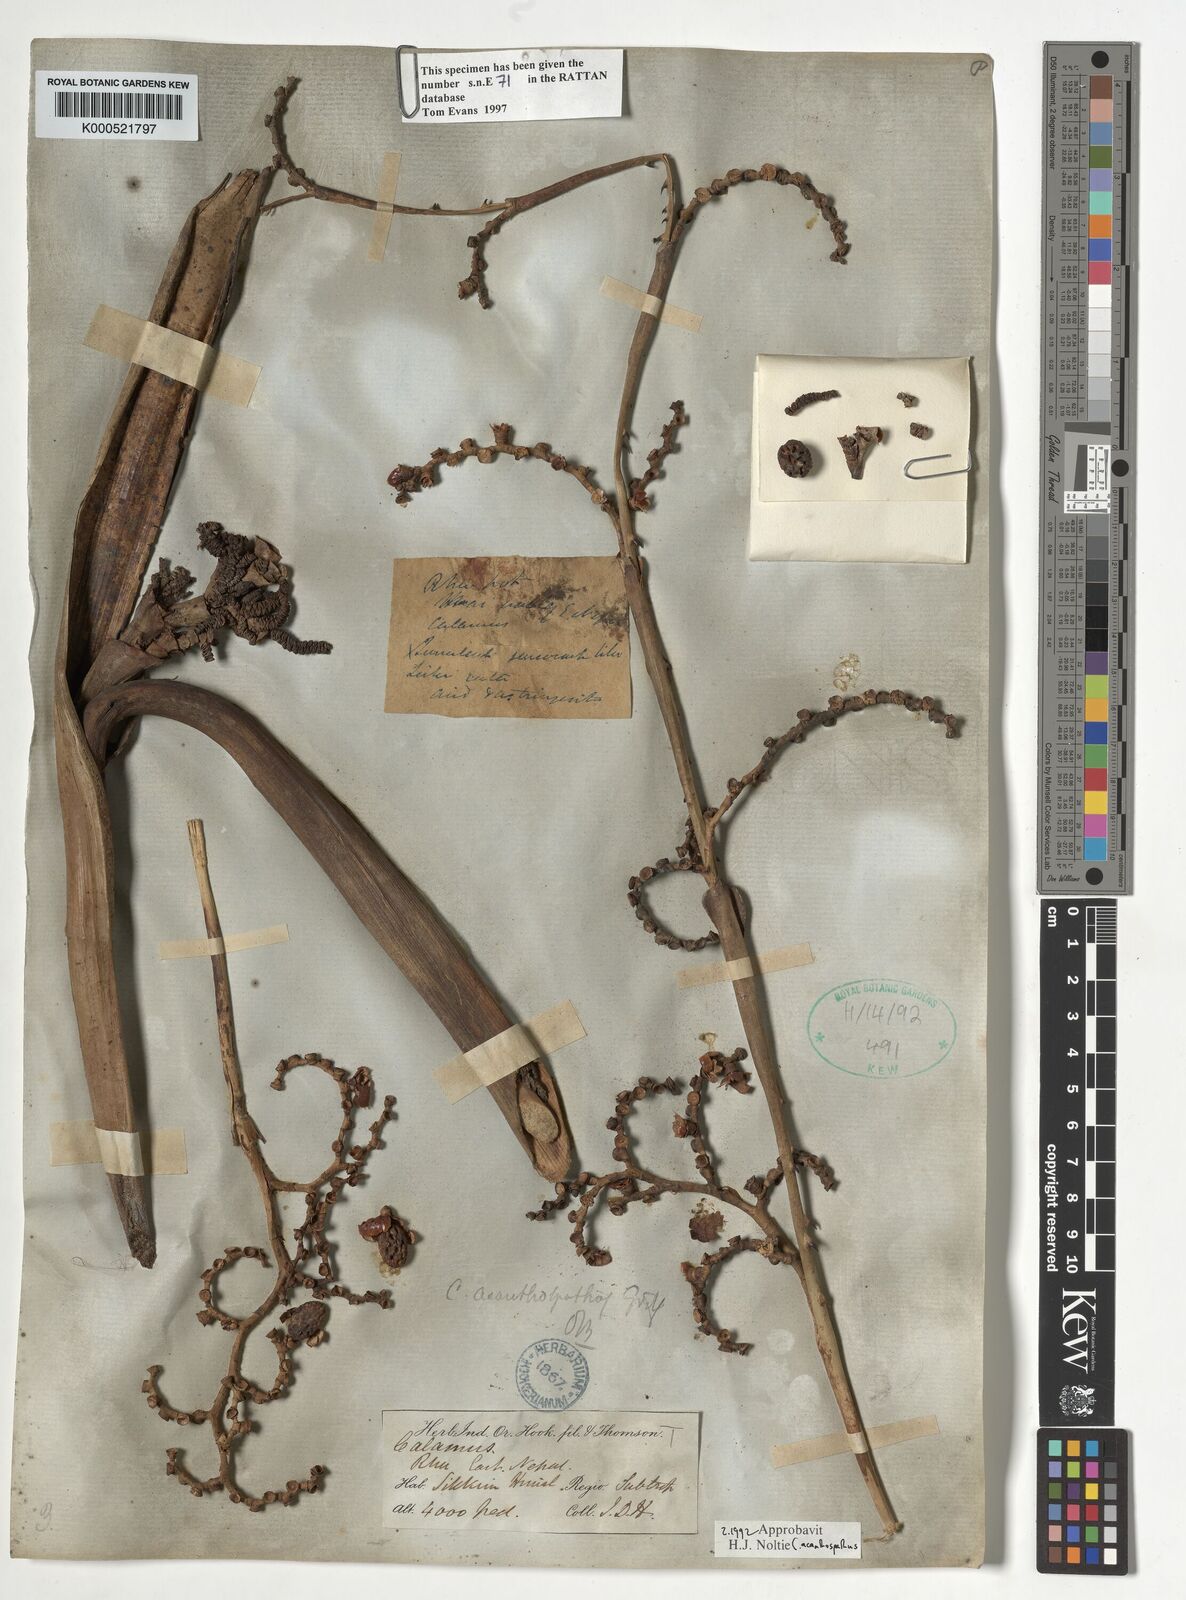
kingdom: Plantae
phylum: Tracheophyta
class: Liliopsida
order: Arecales
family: Arecaceae
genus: Calamus
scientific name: Calamus acanthospathus
